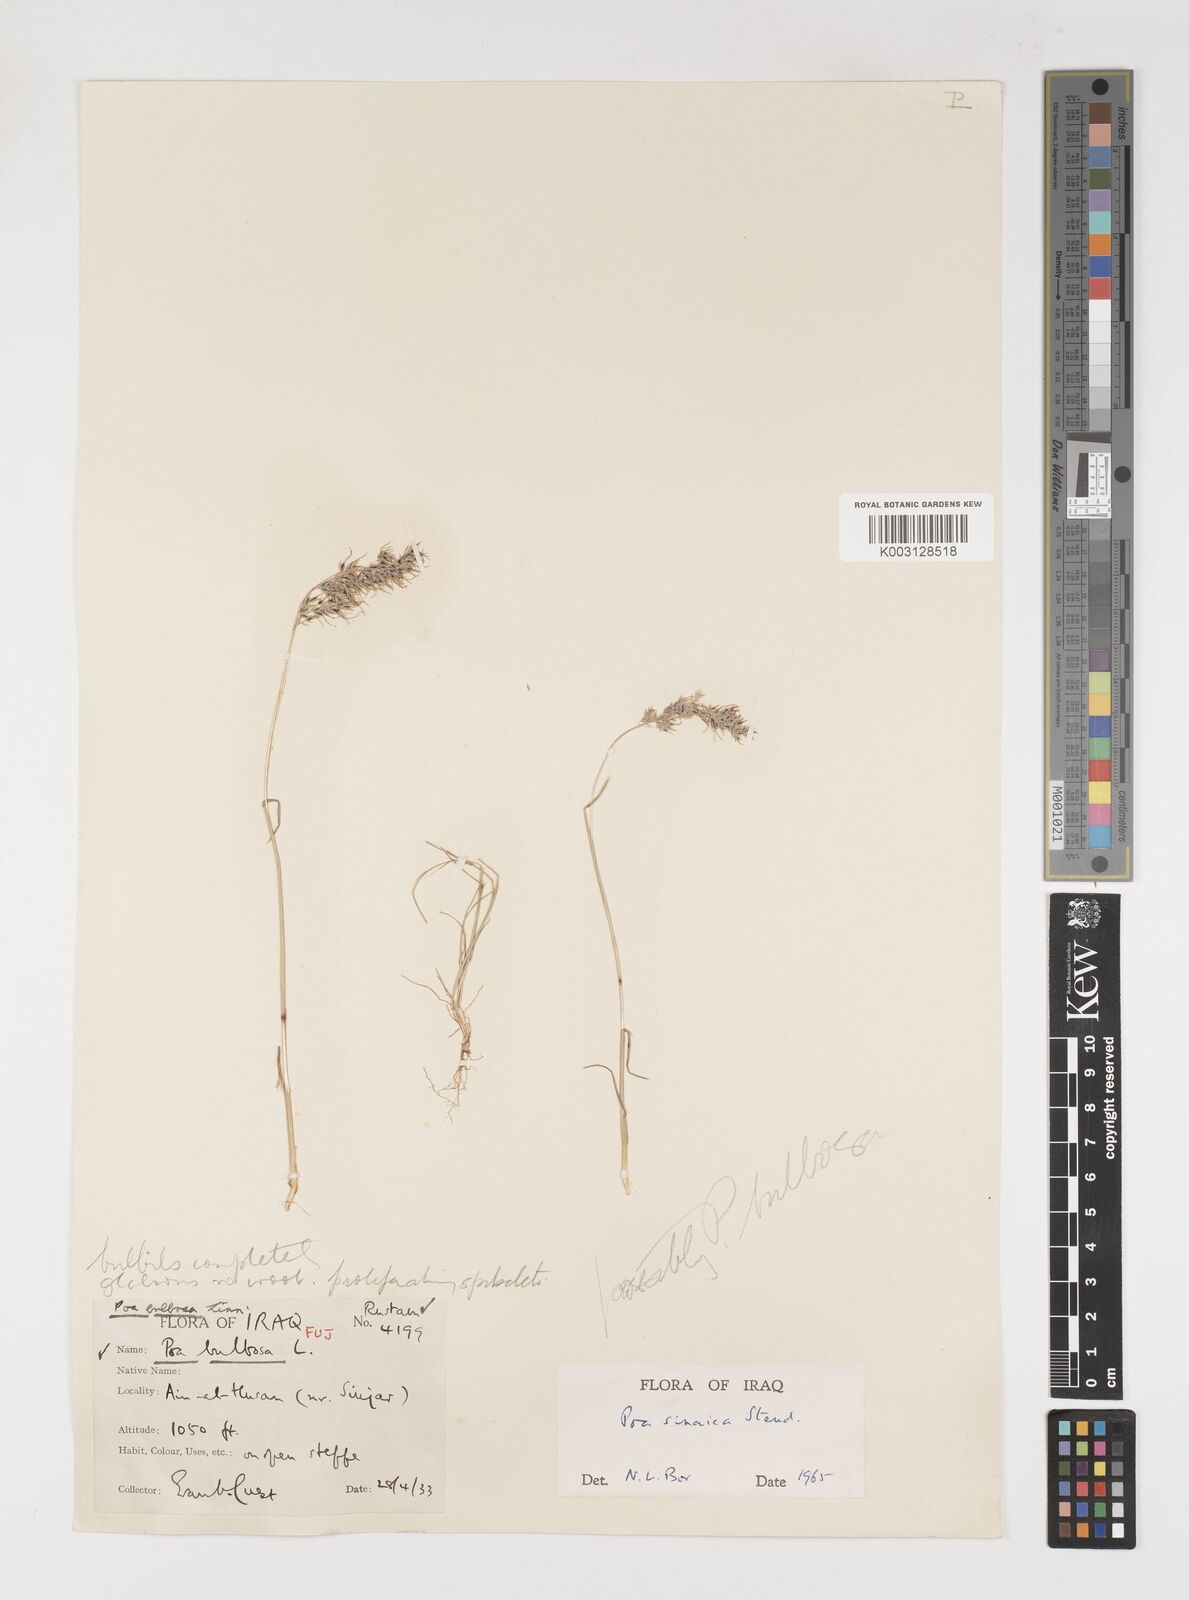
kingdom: Plantae
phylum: Tracheophyta
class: Liliopsida
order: Poales
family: Poaceae
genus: Poa
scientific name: Poa sinaica
